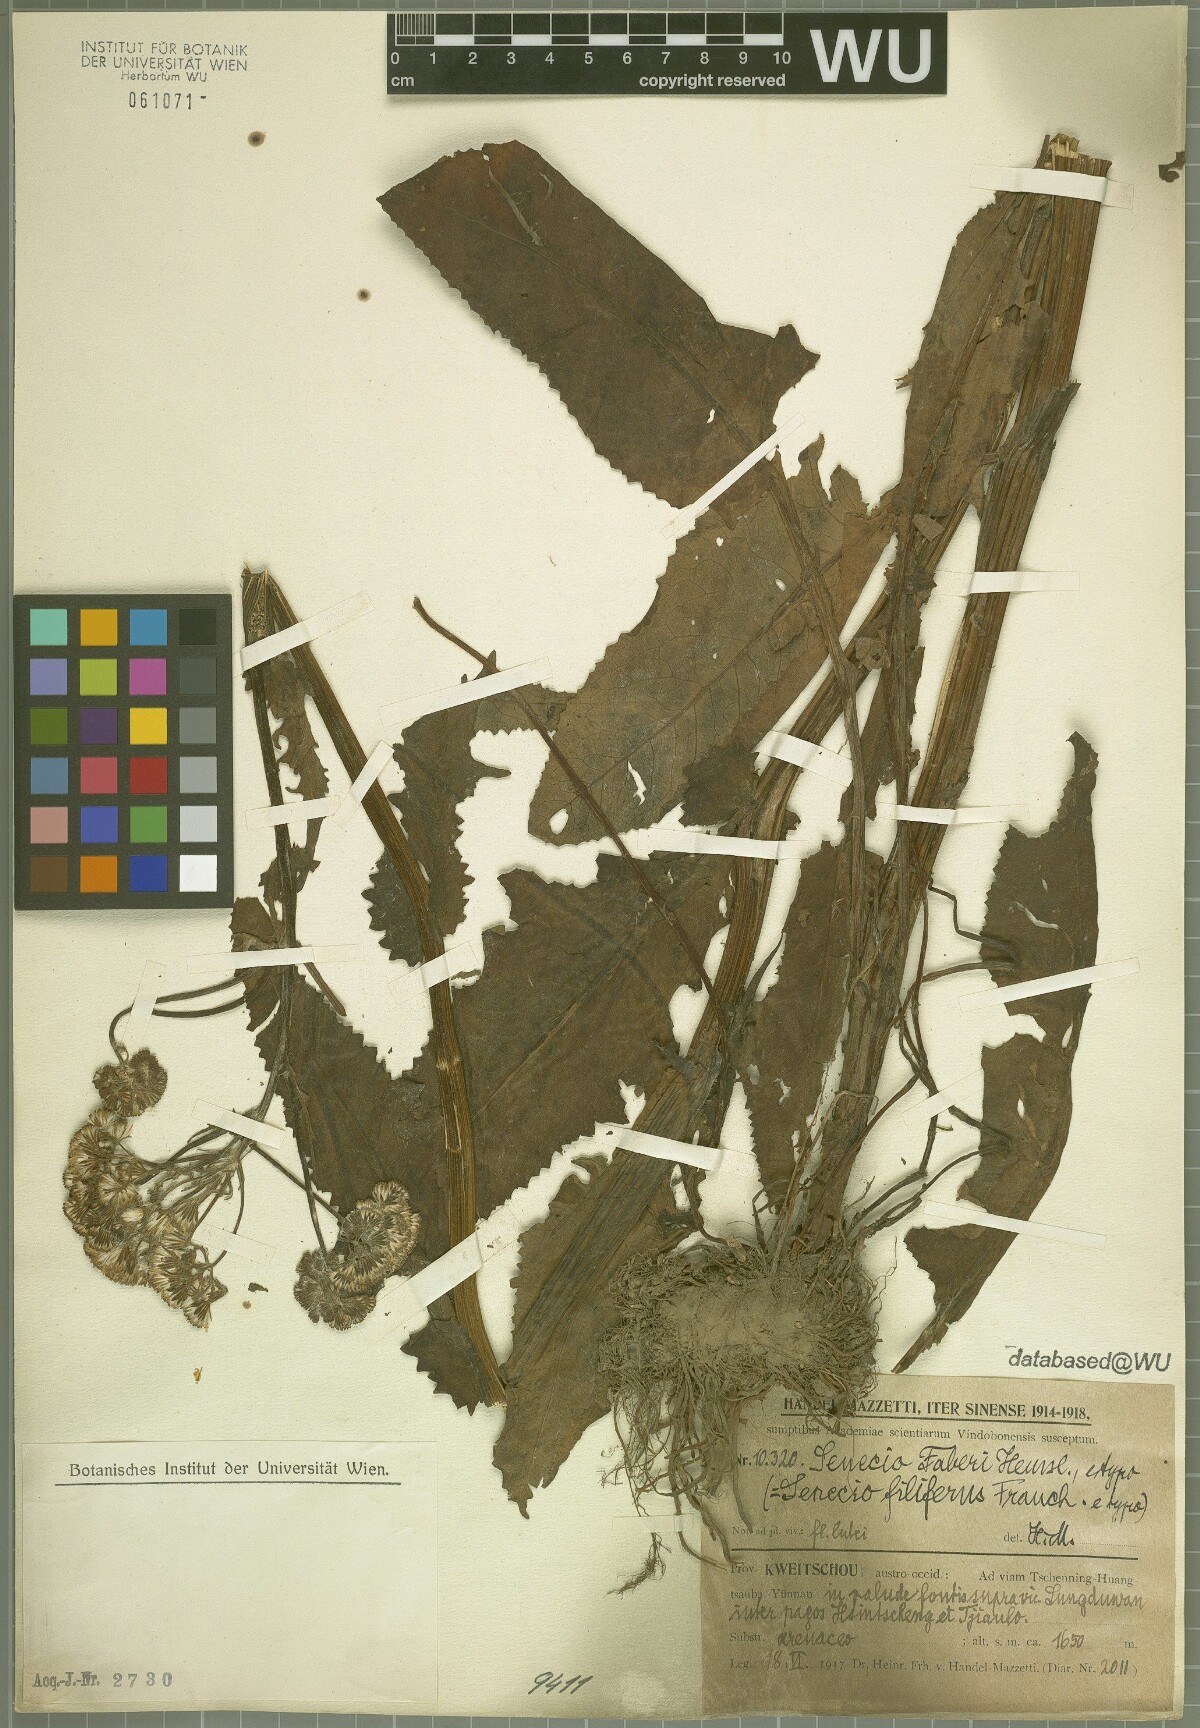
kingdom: Plantae
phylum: Tracheophyta
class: Magnoliopsida
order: Asterales
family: Asteraceae
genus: Senecio
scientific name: Senecio faberi
